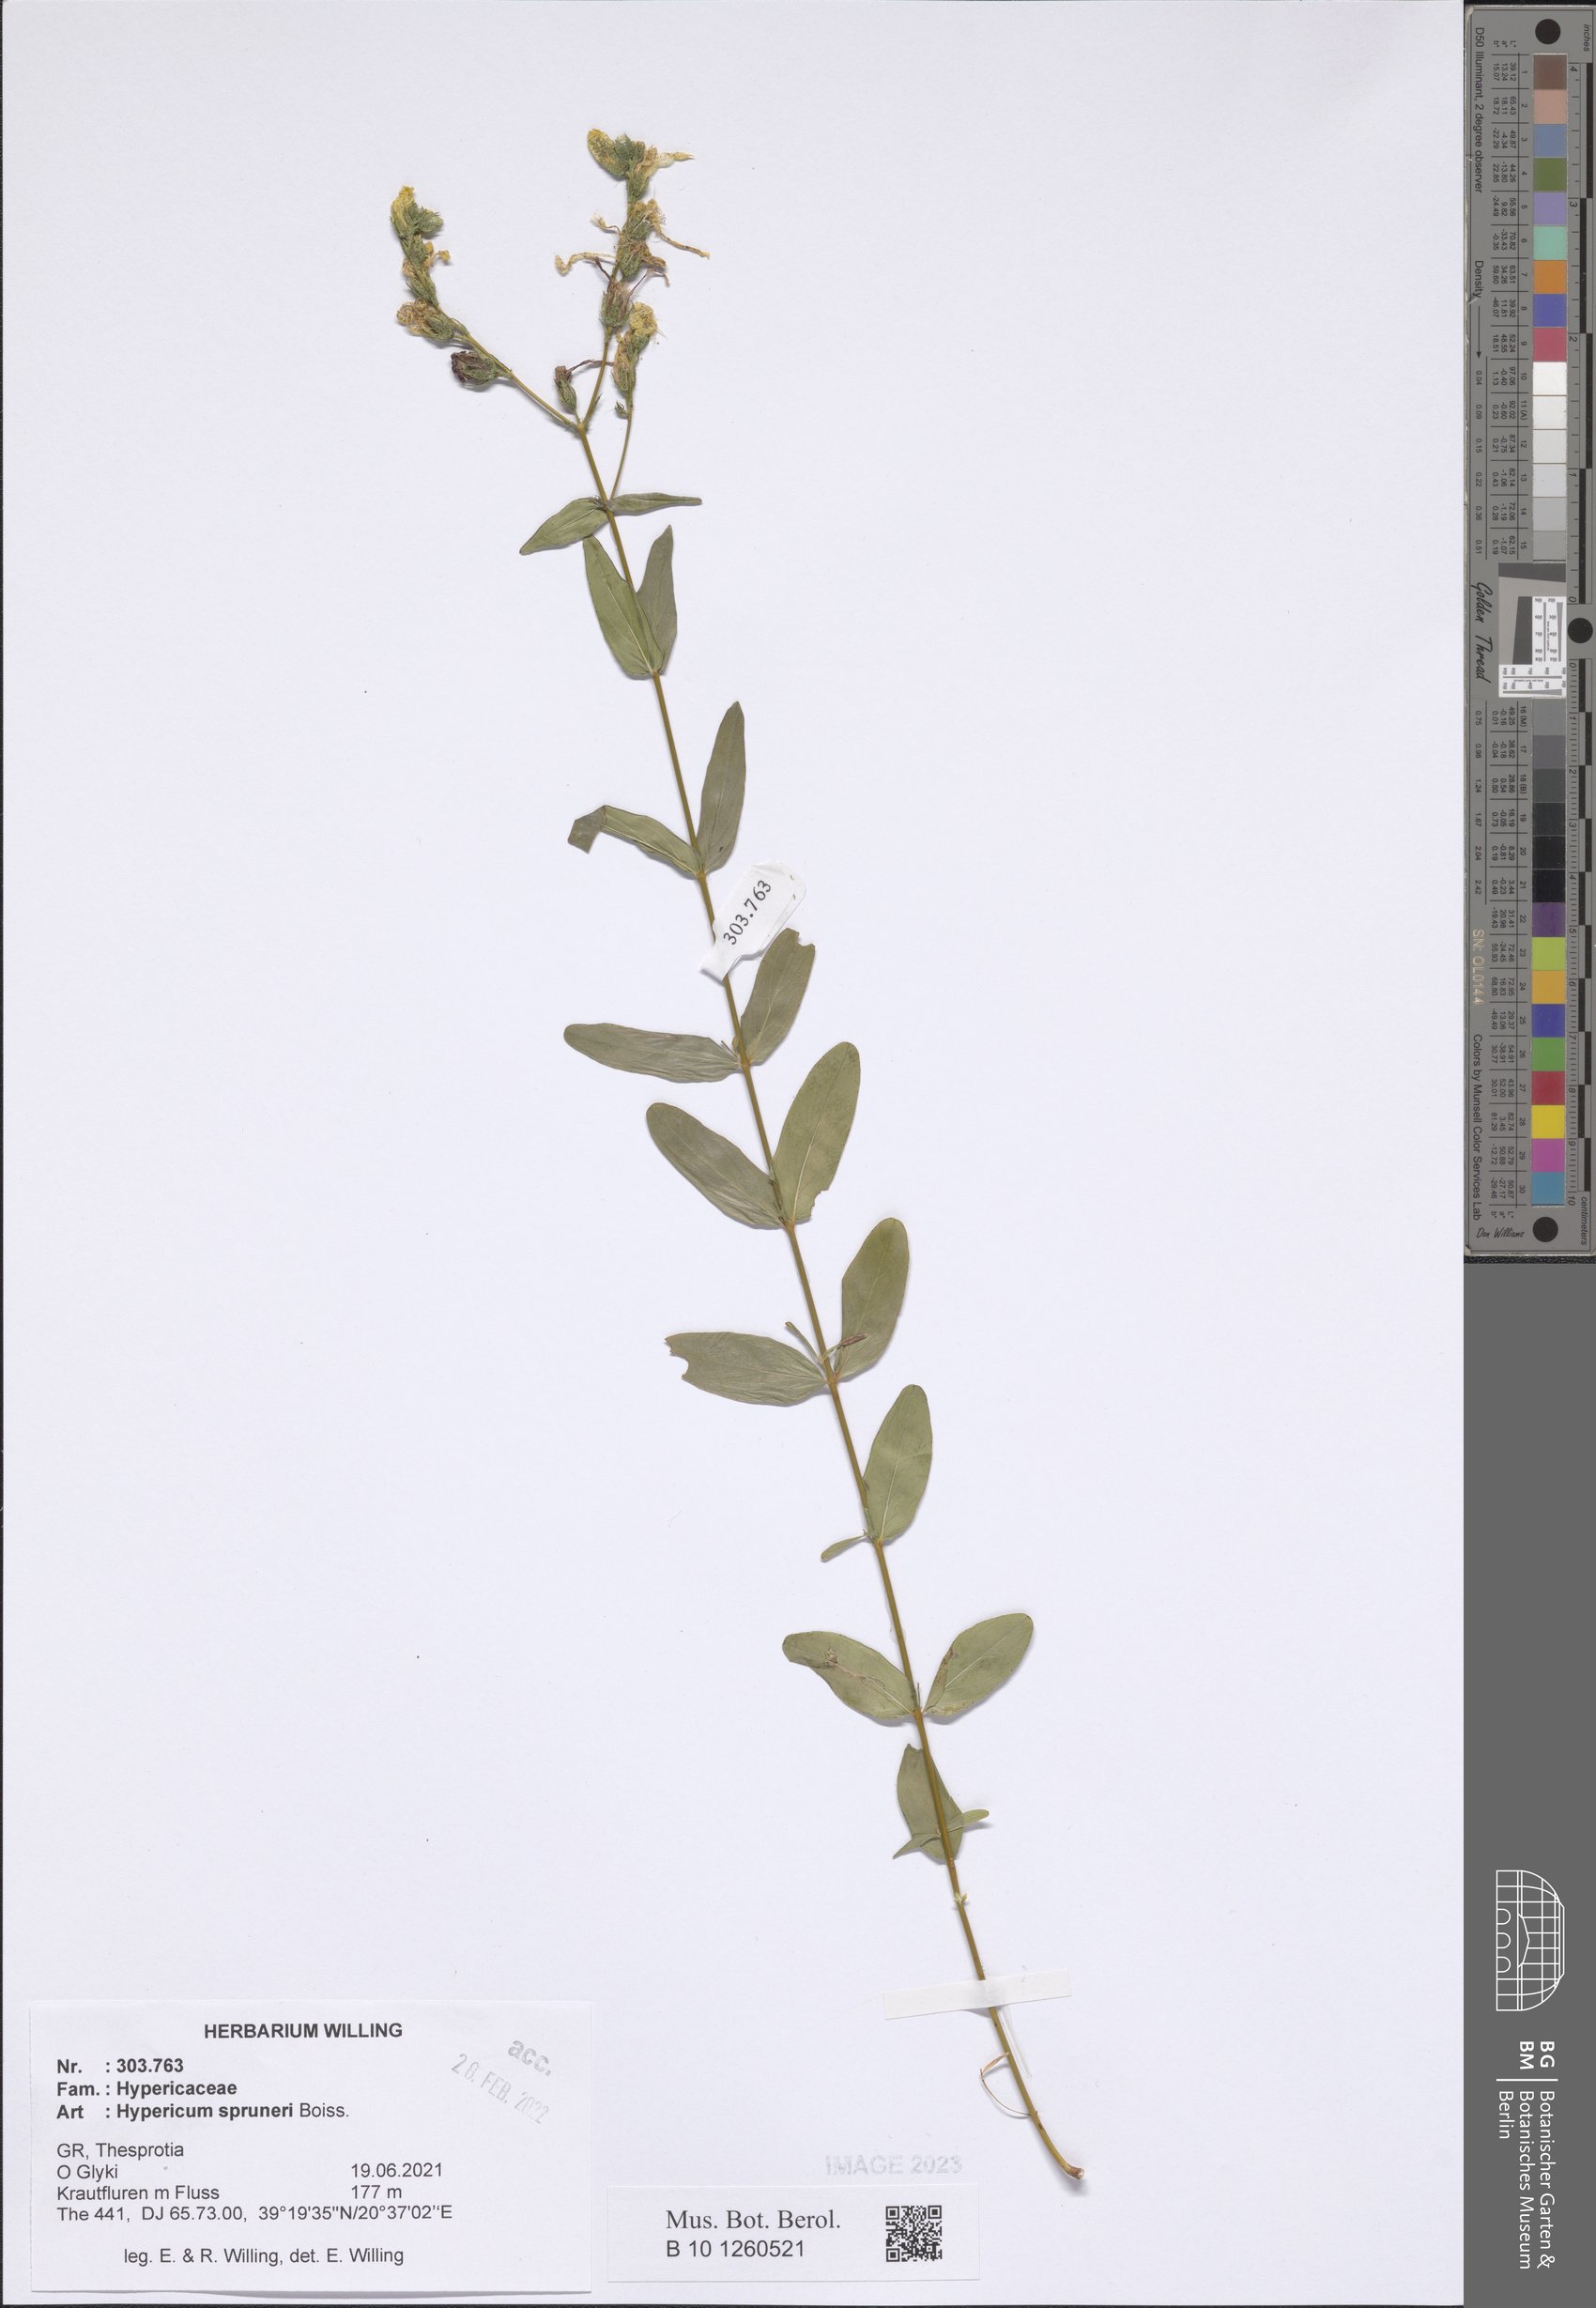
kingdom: Plantae
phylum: Tracheophyta
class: Magnoliopsida
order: Malpighiales
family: Hypericaceae
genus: Hypericum
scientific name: Hypericum spruneri
